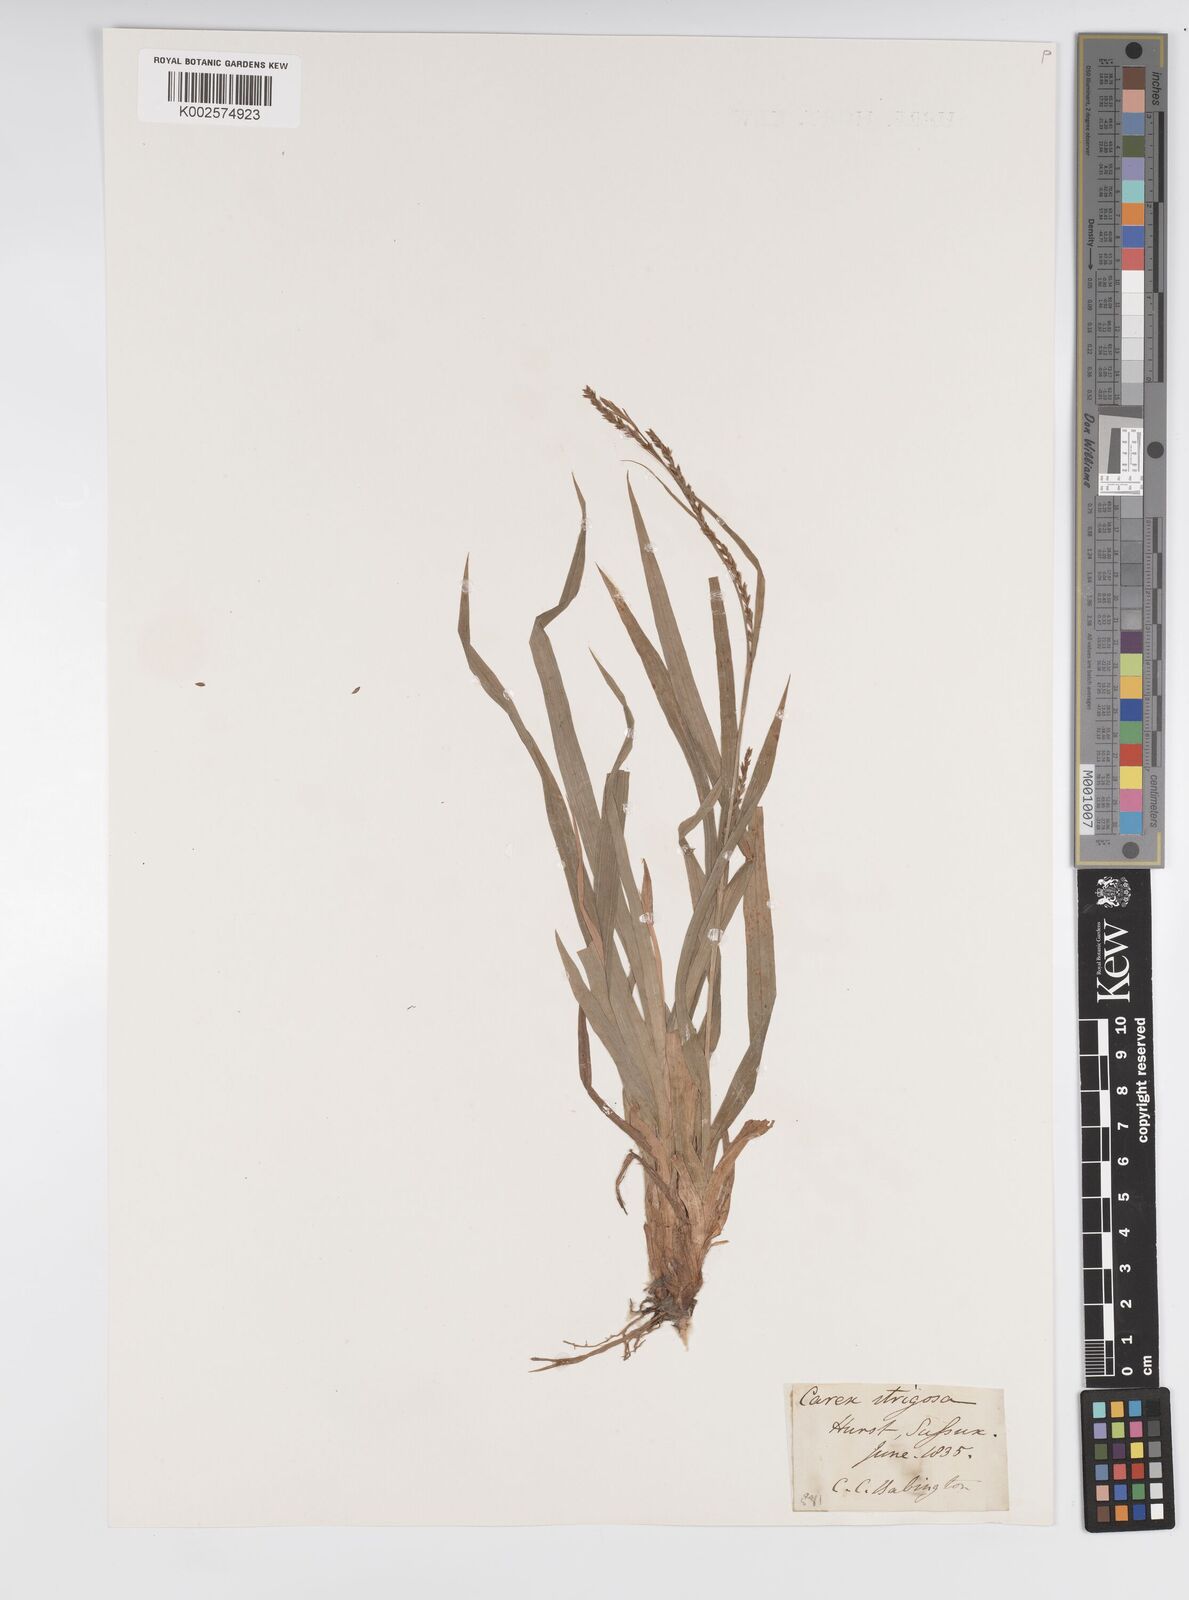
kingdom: Plantae
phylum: Tracheophyta
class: Liliopsida
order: Poales
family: Cyperaceae
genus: Carex
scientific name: Carex strigosa
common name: Thin-spiked wood-sedge
